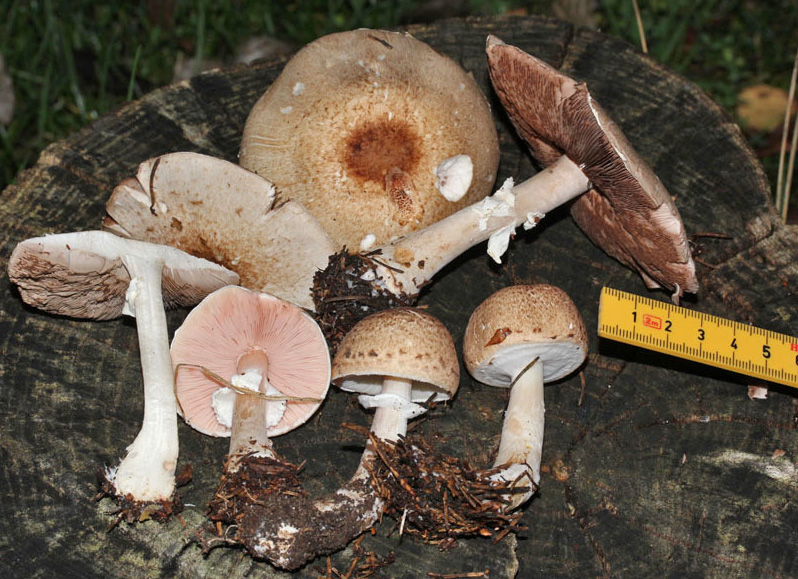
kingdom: Fungi
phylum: Basidiomycota
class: Agaricomycetes
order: Agaricales
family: Agaricaceae
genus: Agaricus
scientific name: Agaricus impudicus
